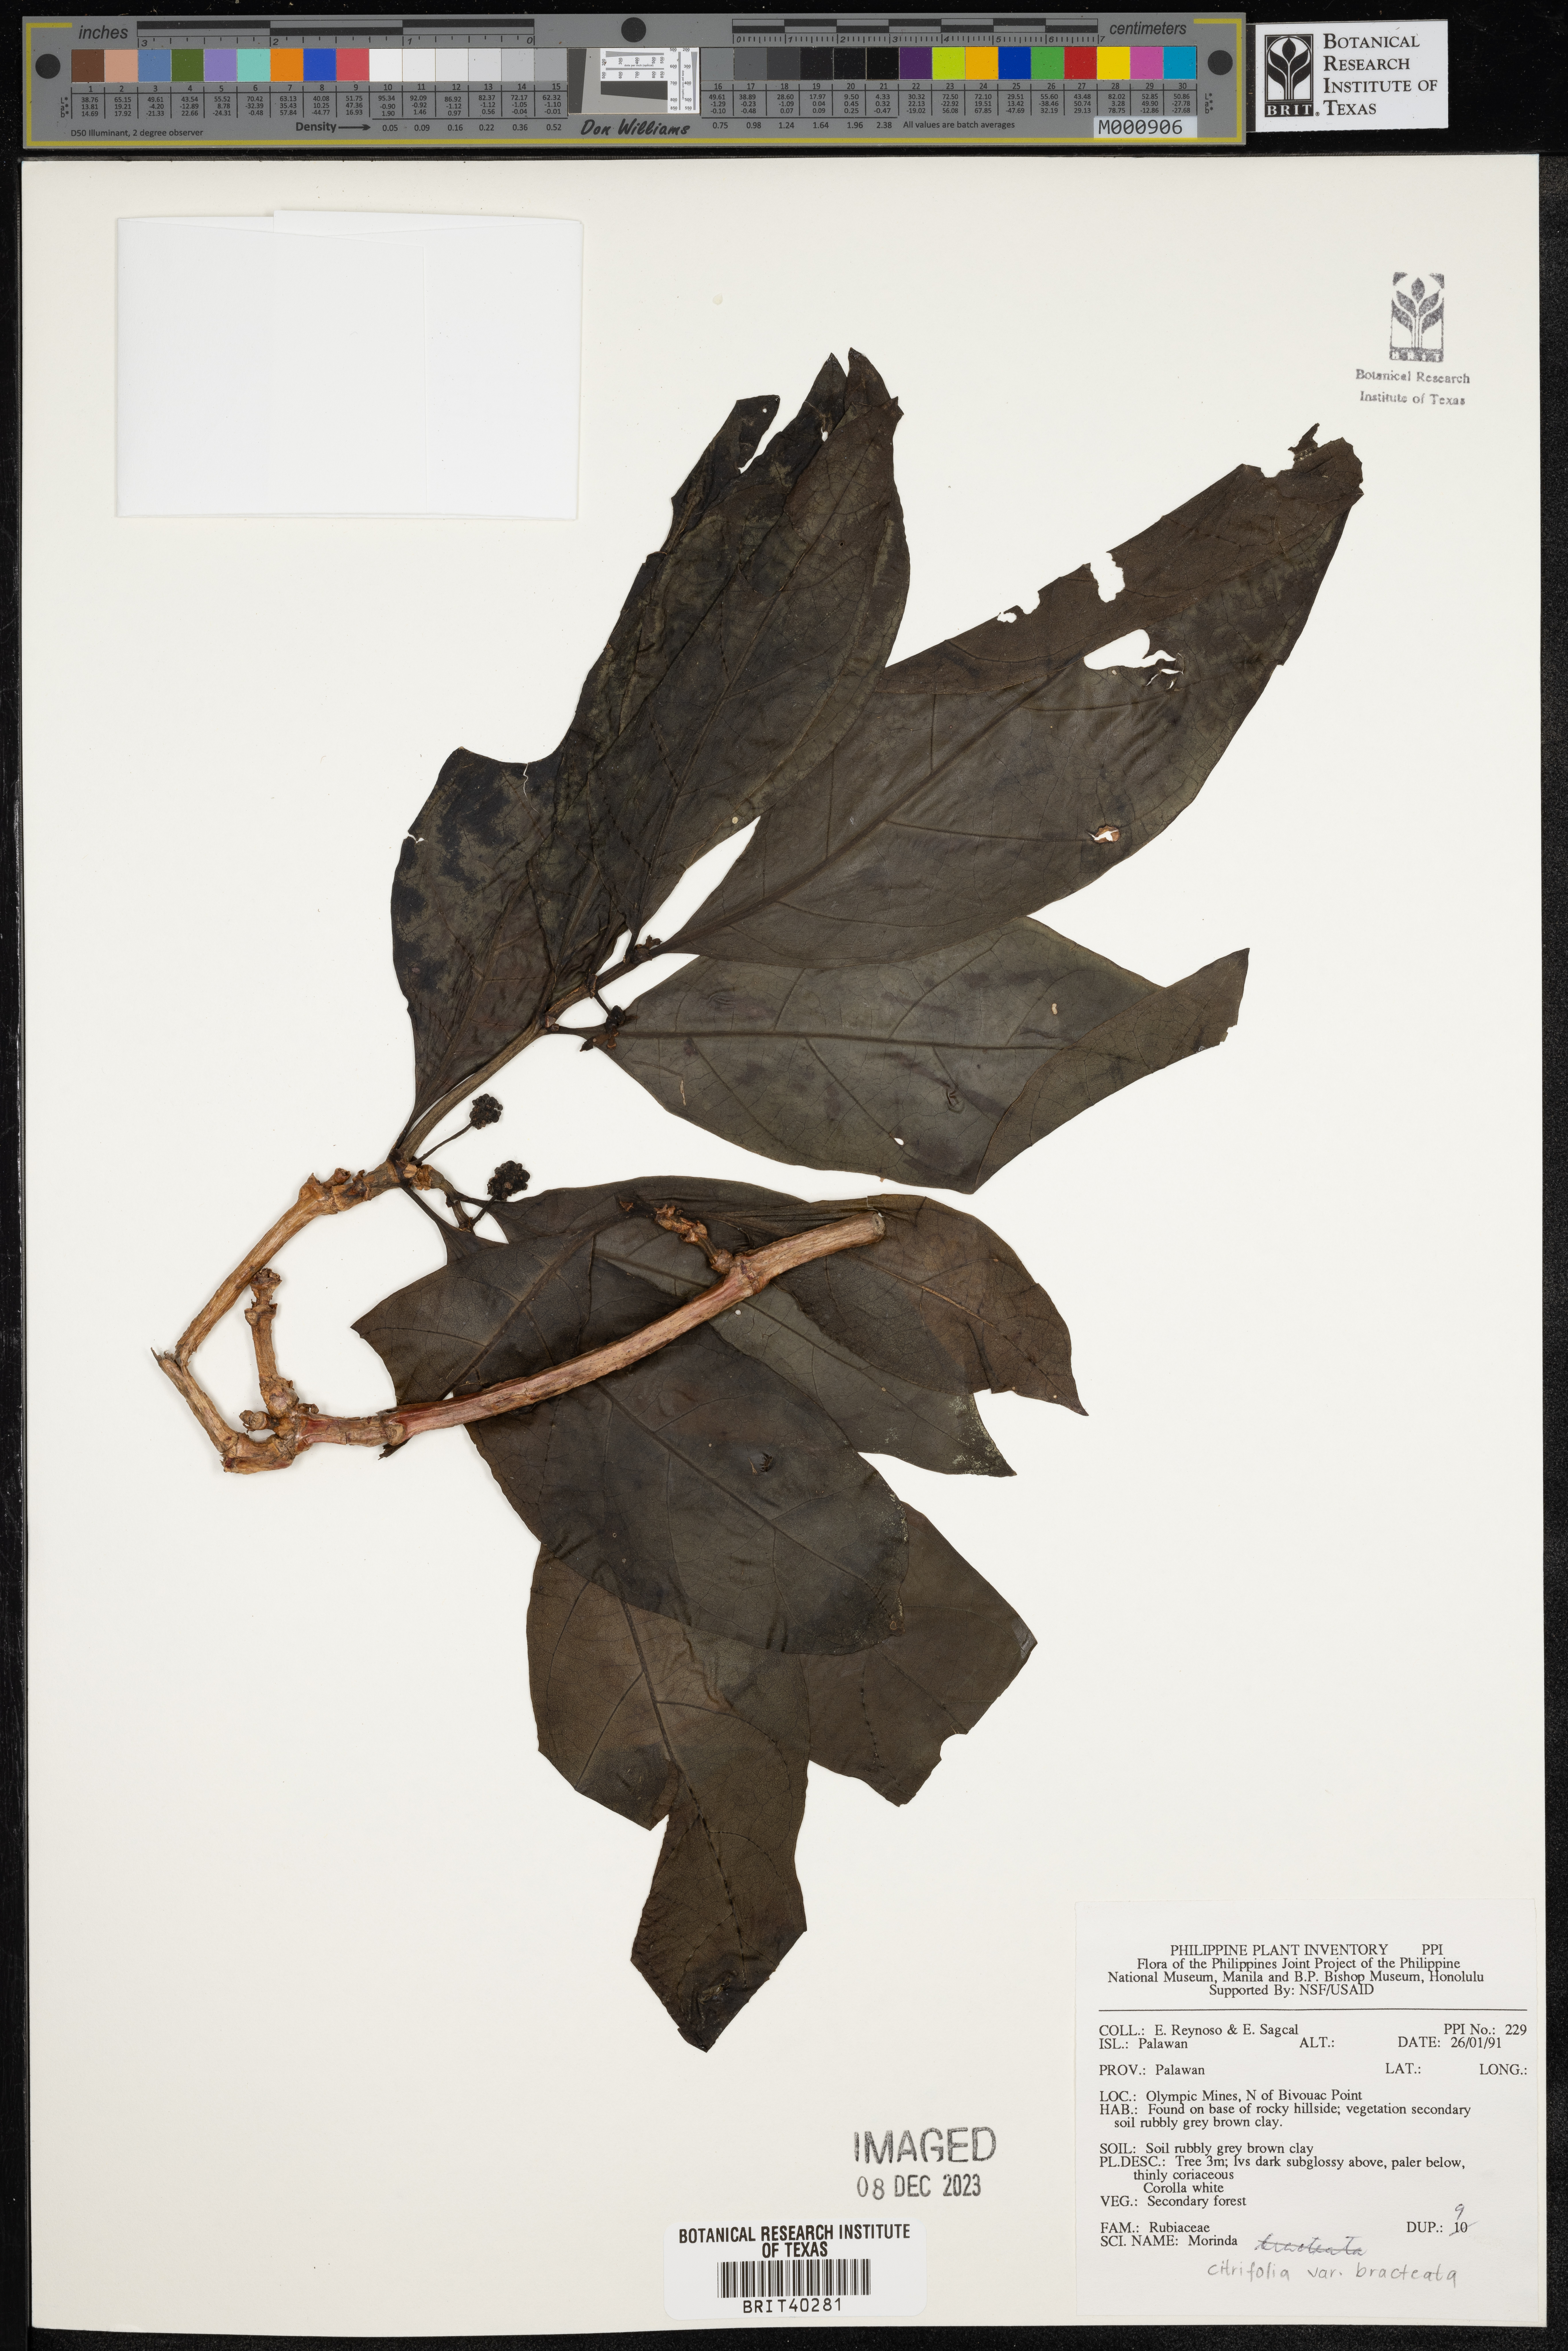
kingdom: Plantae
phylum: Tracheophyta
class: Magnoliopsida
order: Gentianales
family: Rubiaceae
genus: Morinda
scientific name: Morinda citrifolia
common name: Indian-mulberry
